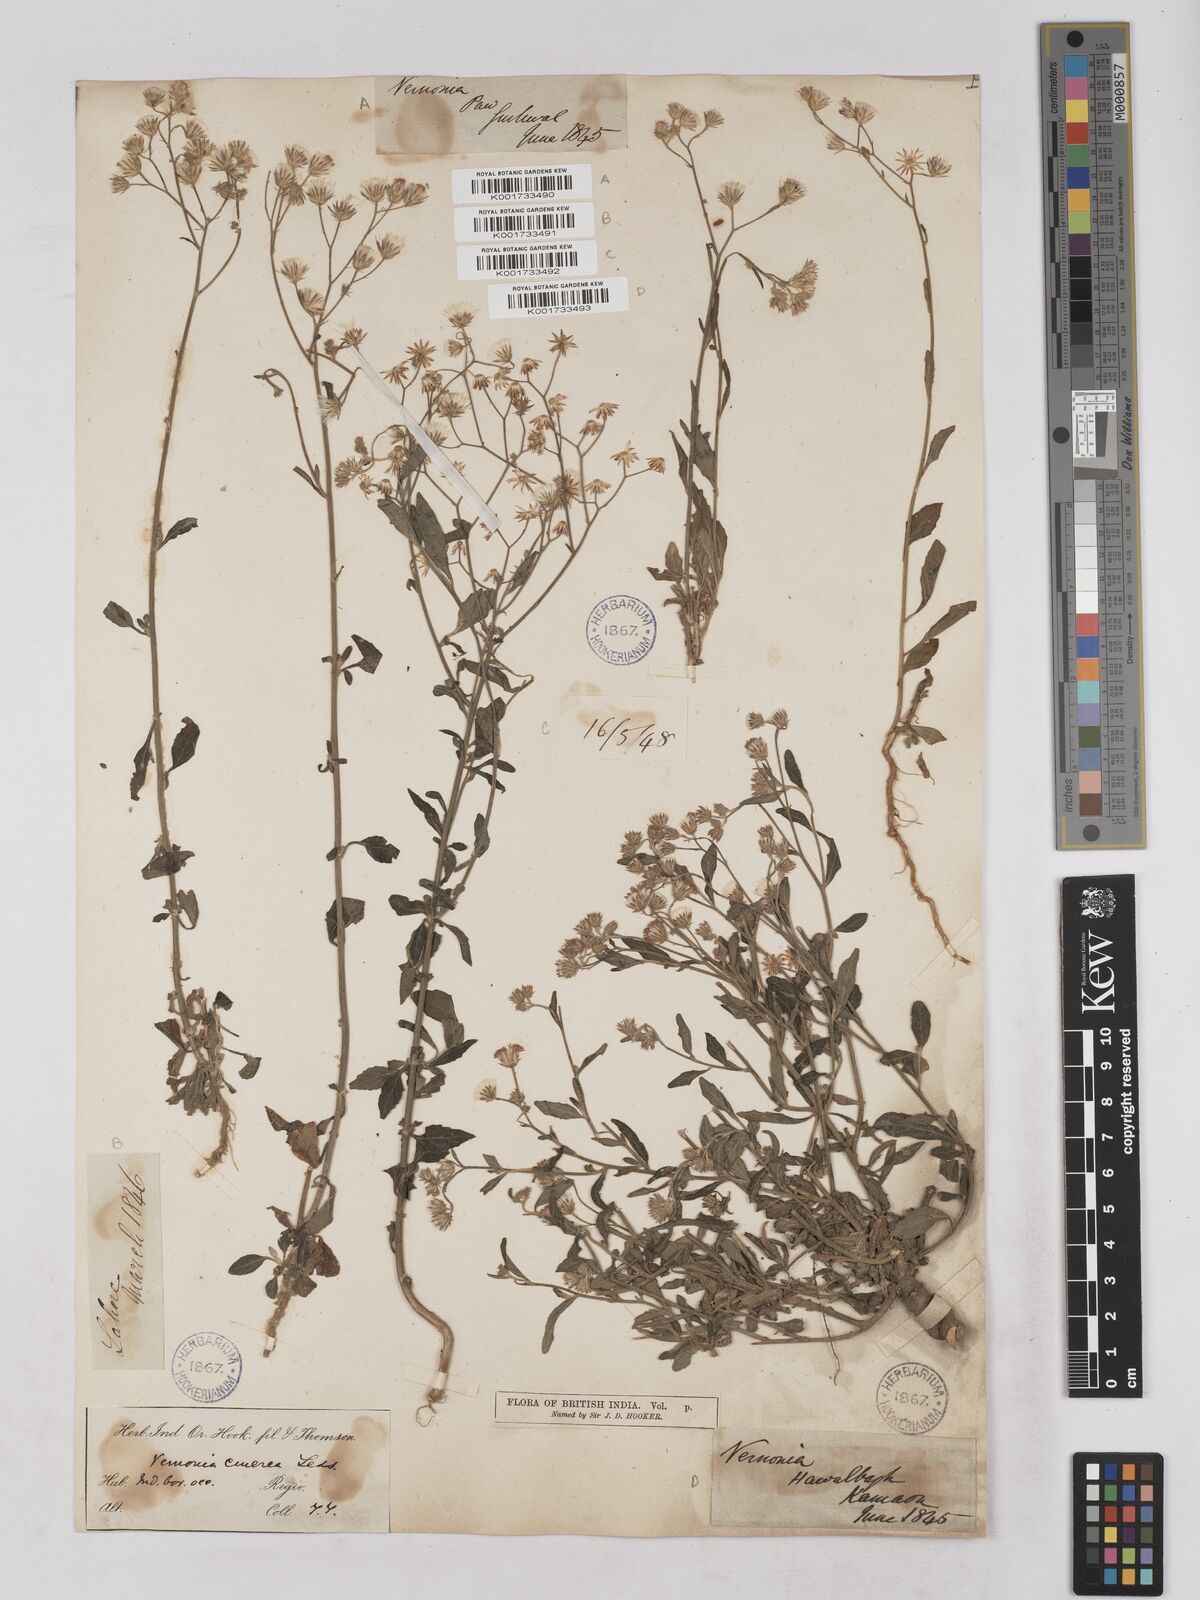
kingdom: Plantae
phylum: Tracheophyta
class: Magnoliopsida
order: Asterales
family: Asteraceae
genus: Cyanthillium
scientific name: Cyanthillium cinereum
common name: Little ironweed
